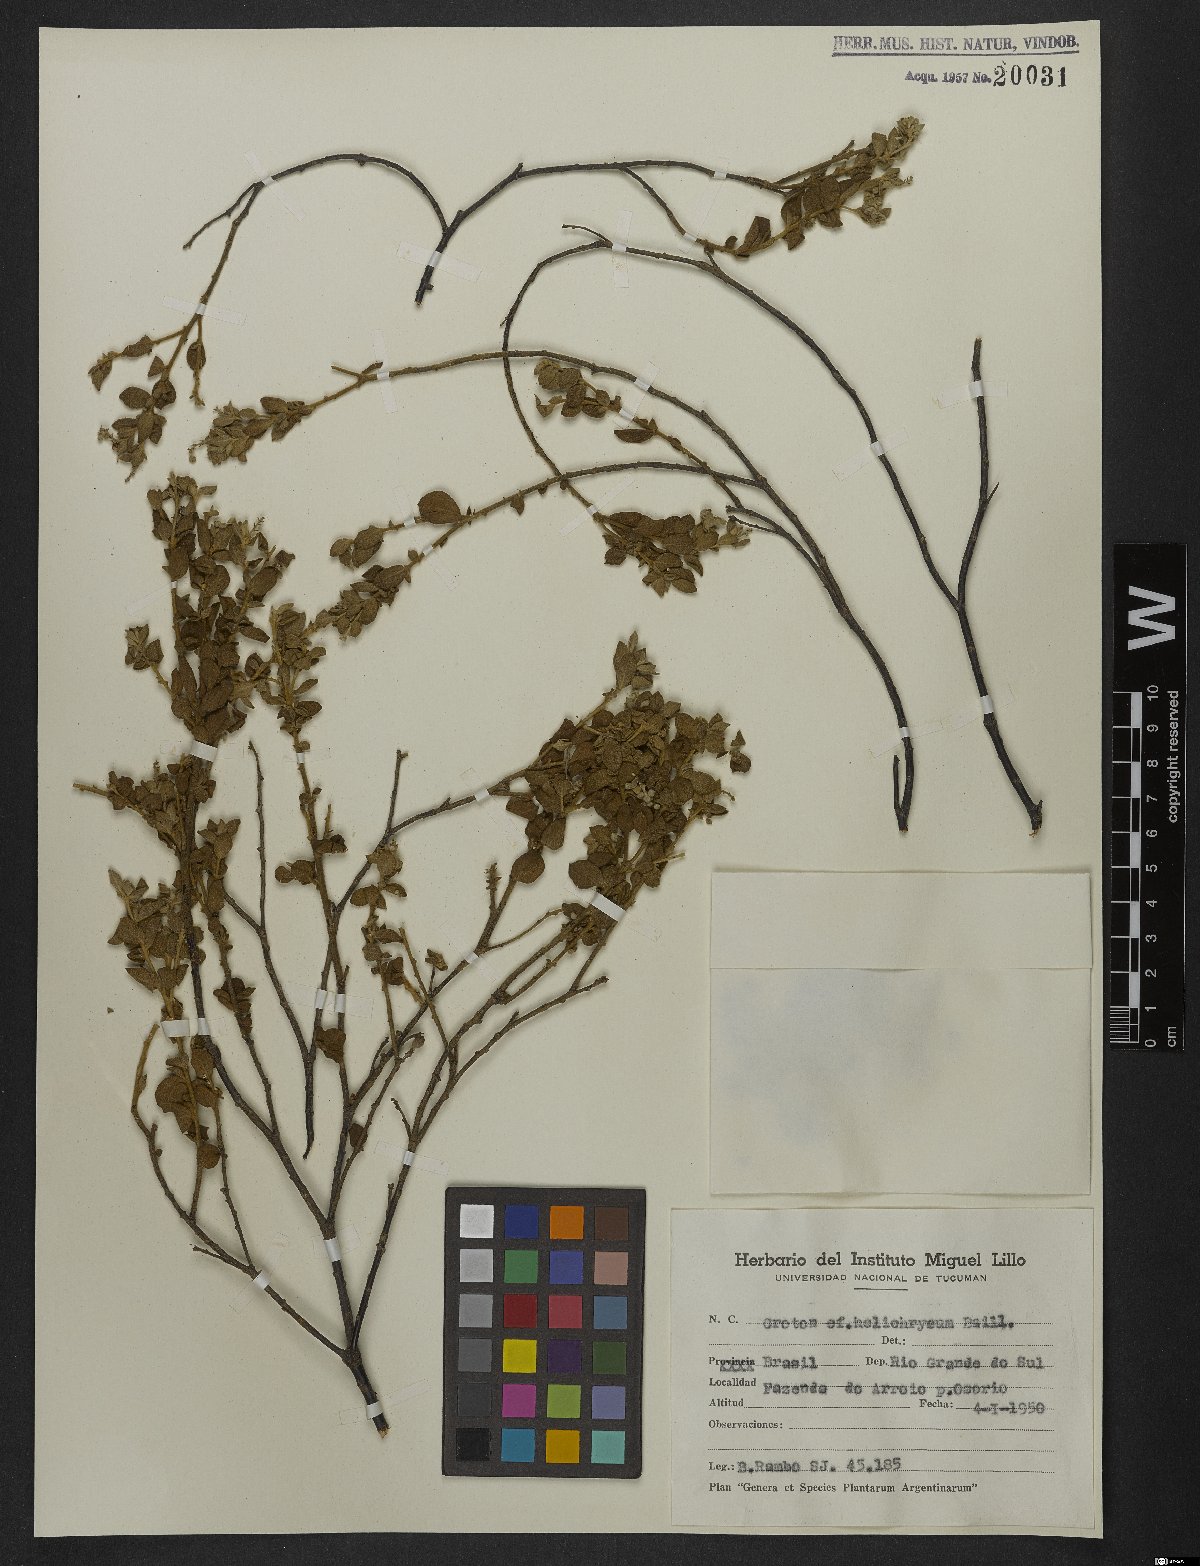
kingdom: Plantae
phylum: Tracheophyta
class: Magnoliopsida
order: Malpighiales
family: Euphorbiaceae
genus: Croton
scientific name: Croton helichrysum
